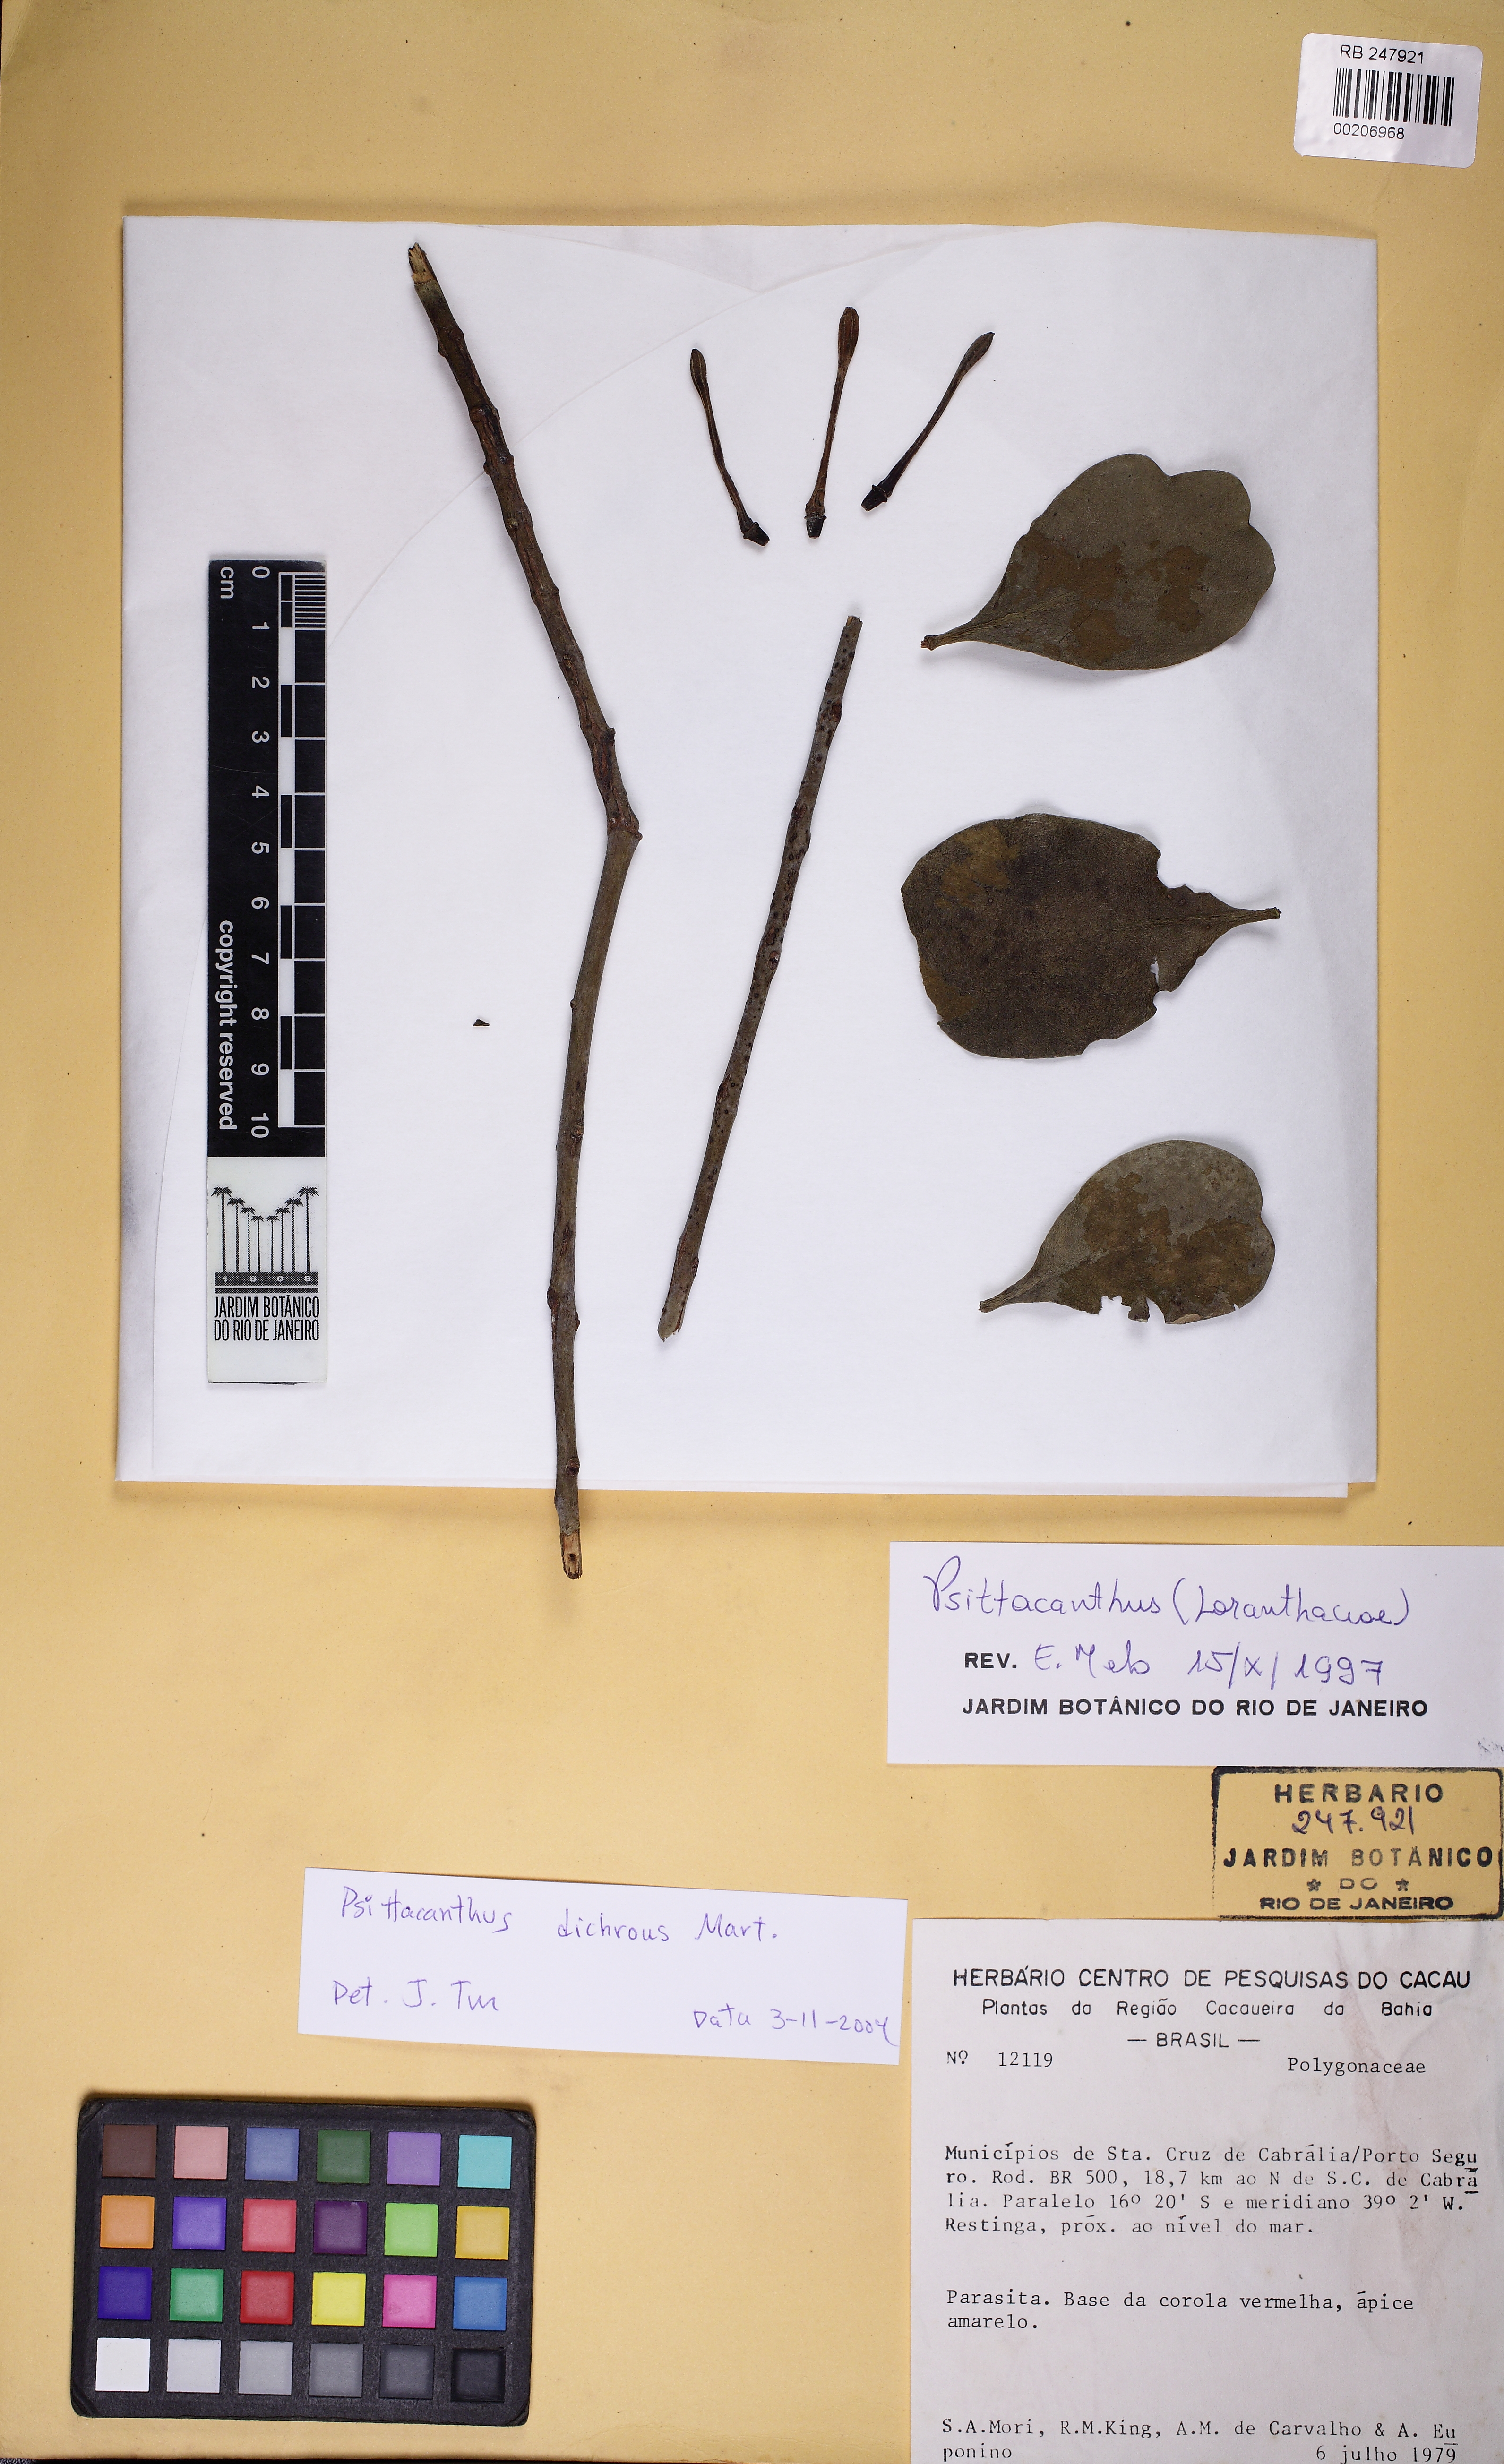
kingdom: Plantae
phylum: Tracheophyta
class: Magnoliopsida
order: Santalales
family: Loranthaceae
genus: Psittacanthus
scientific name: Psittacanthus dichroos
